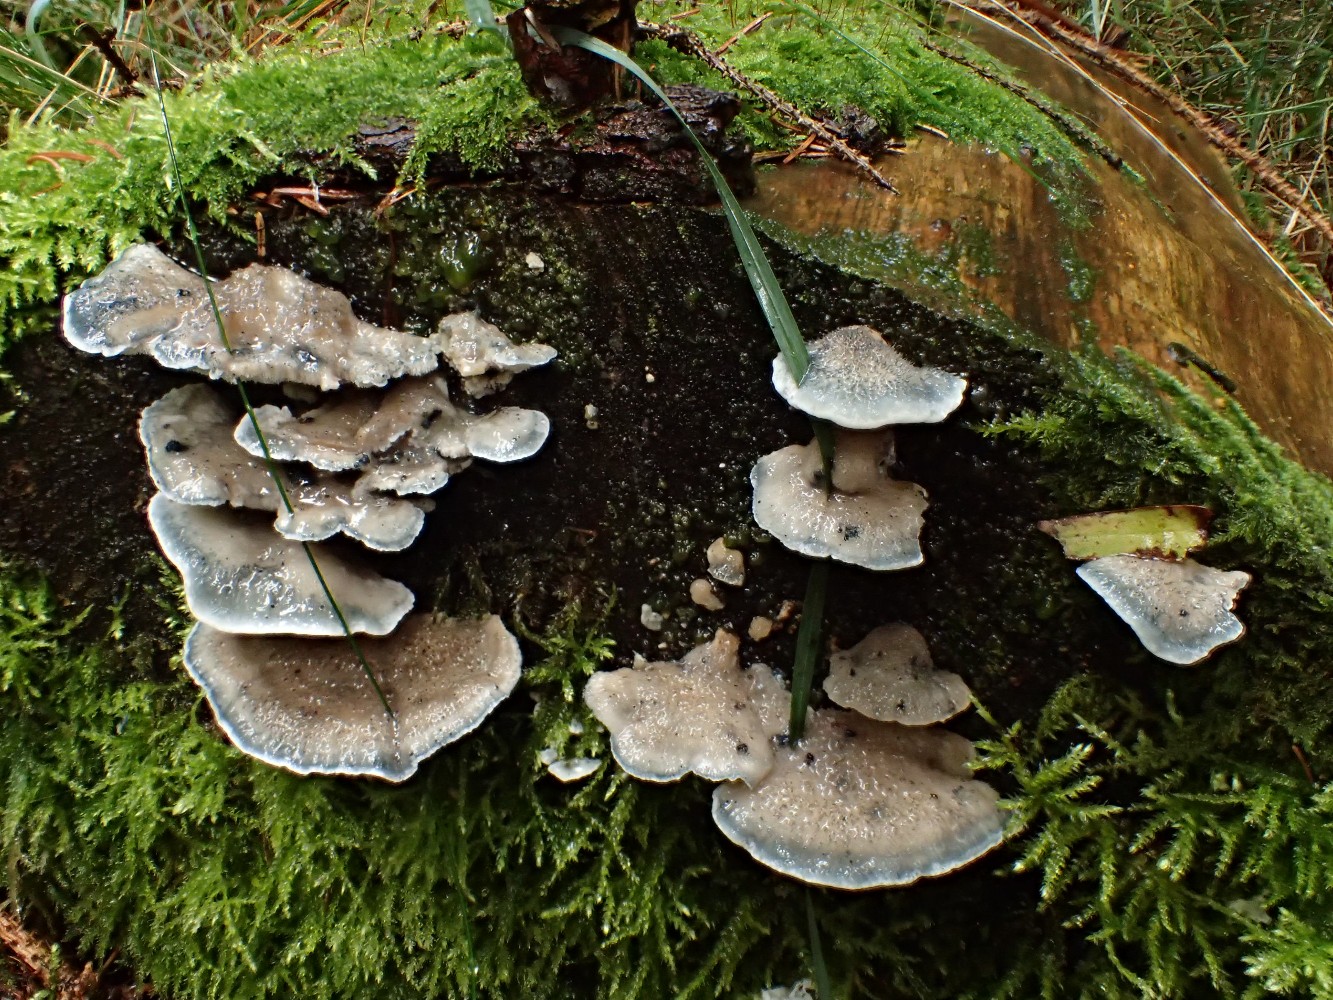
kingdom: Fungi
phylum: Basidiomycota
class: Agaricomycetes
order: Polyporales
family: Polyporaceae
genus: Cyanosporus
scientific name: Cyanosporus caesius
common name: blålig kødporesvamp
